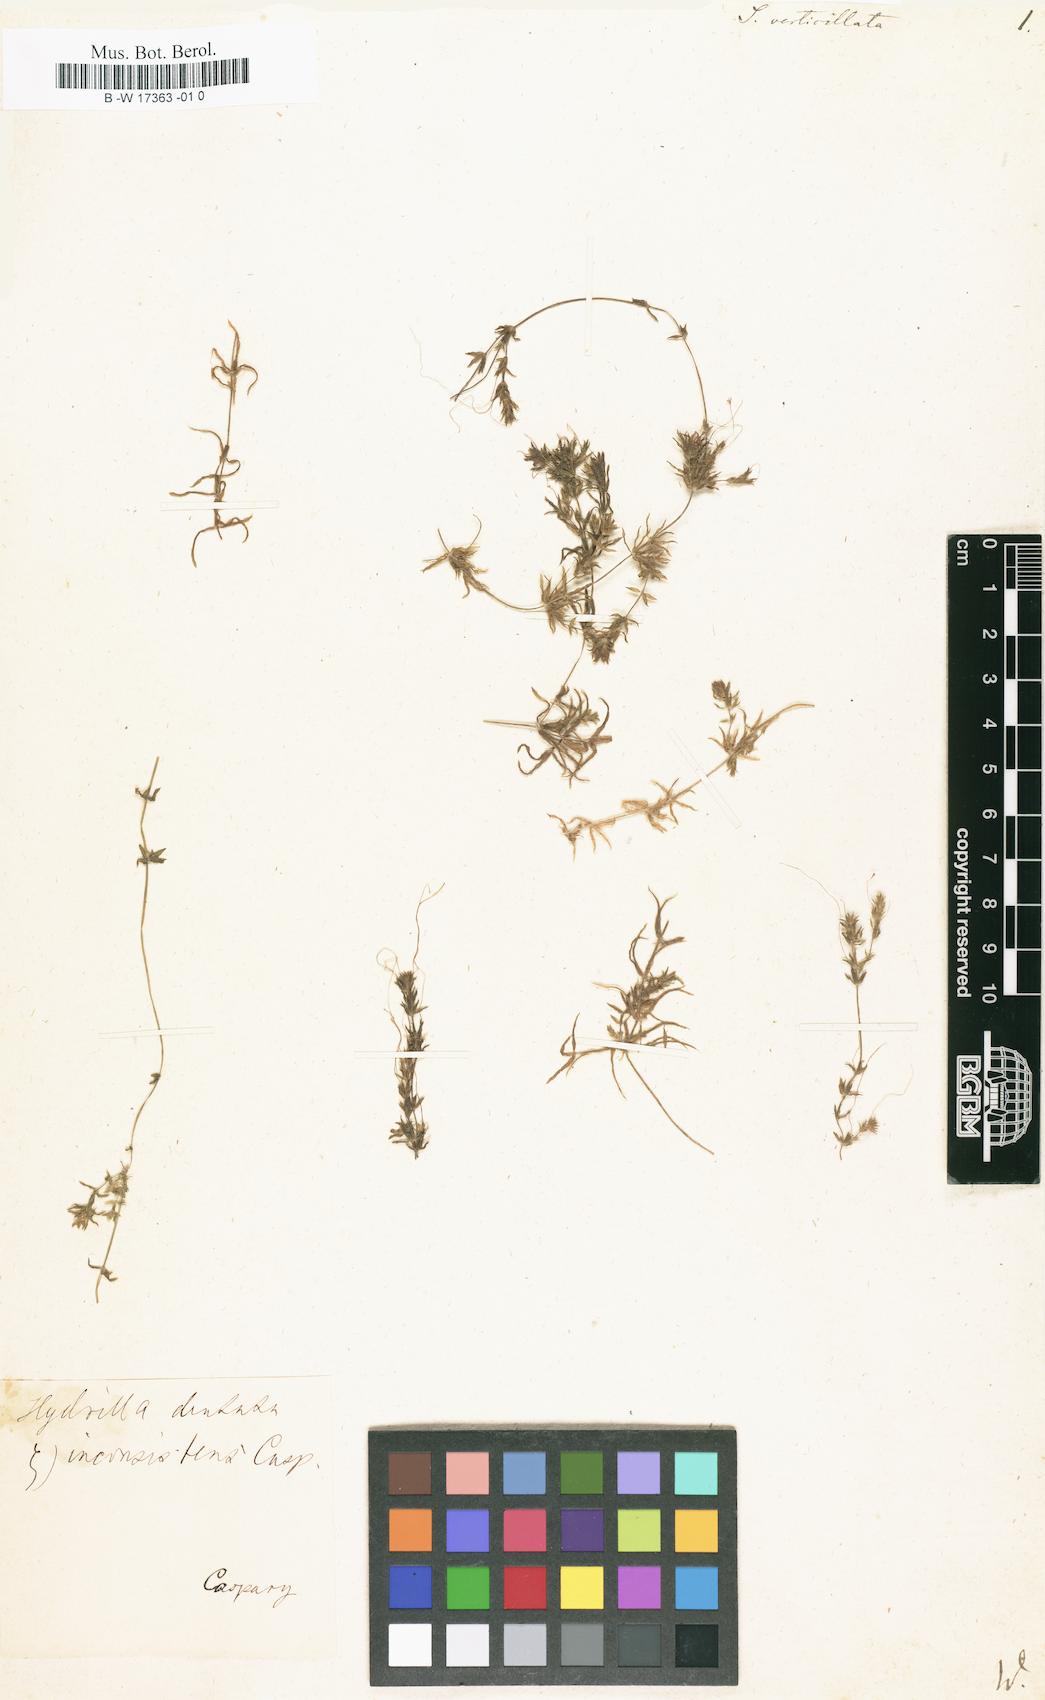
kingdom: Plantae
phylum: Tracheophyta
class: Liliopsida
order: Alismatales
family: Hydrocharitaceae
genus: Hydrilla
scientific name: Hydrilla verticillata
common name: Florida-elodea
